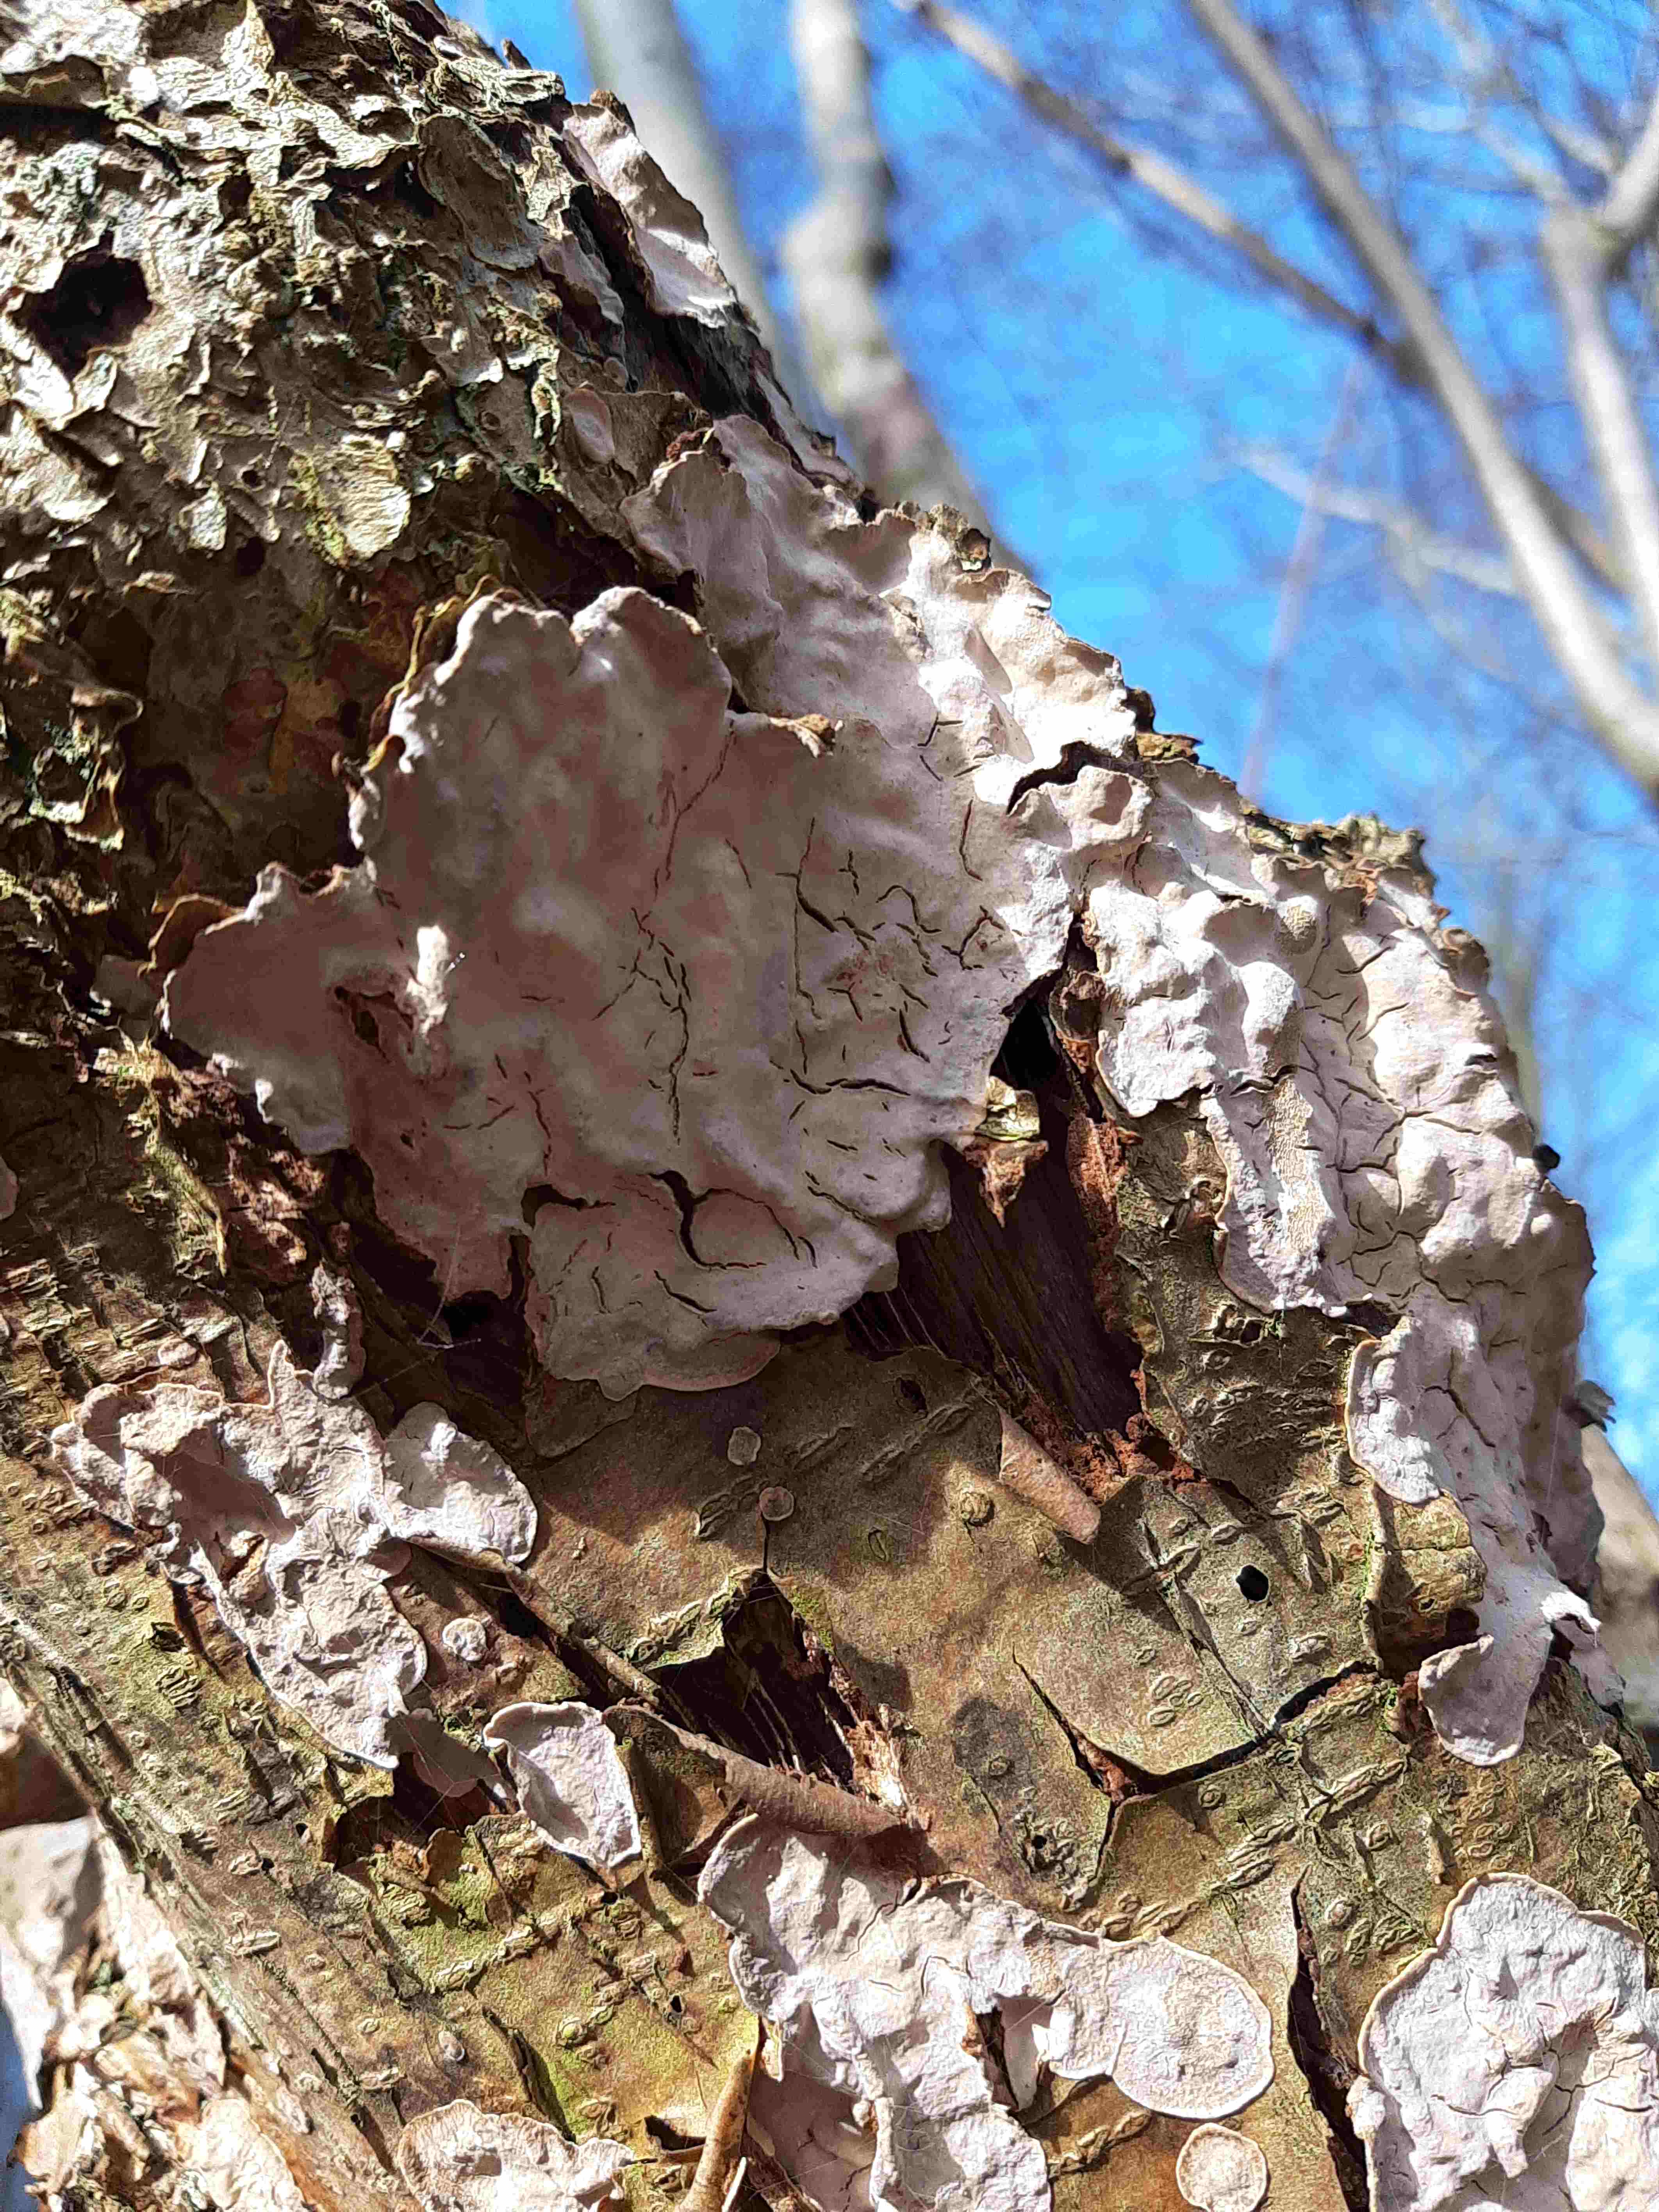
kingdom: Fungi
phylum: Basidiomycota
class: Agaricomycetes
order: Russulales
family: Stereaceae
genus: Stereum
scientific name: Stereum rugosum
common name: rynket lædersvamp
